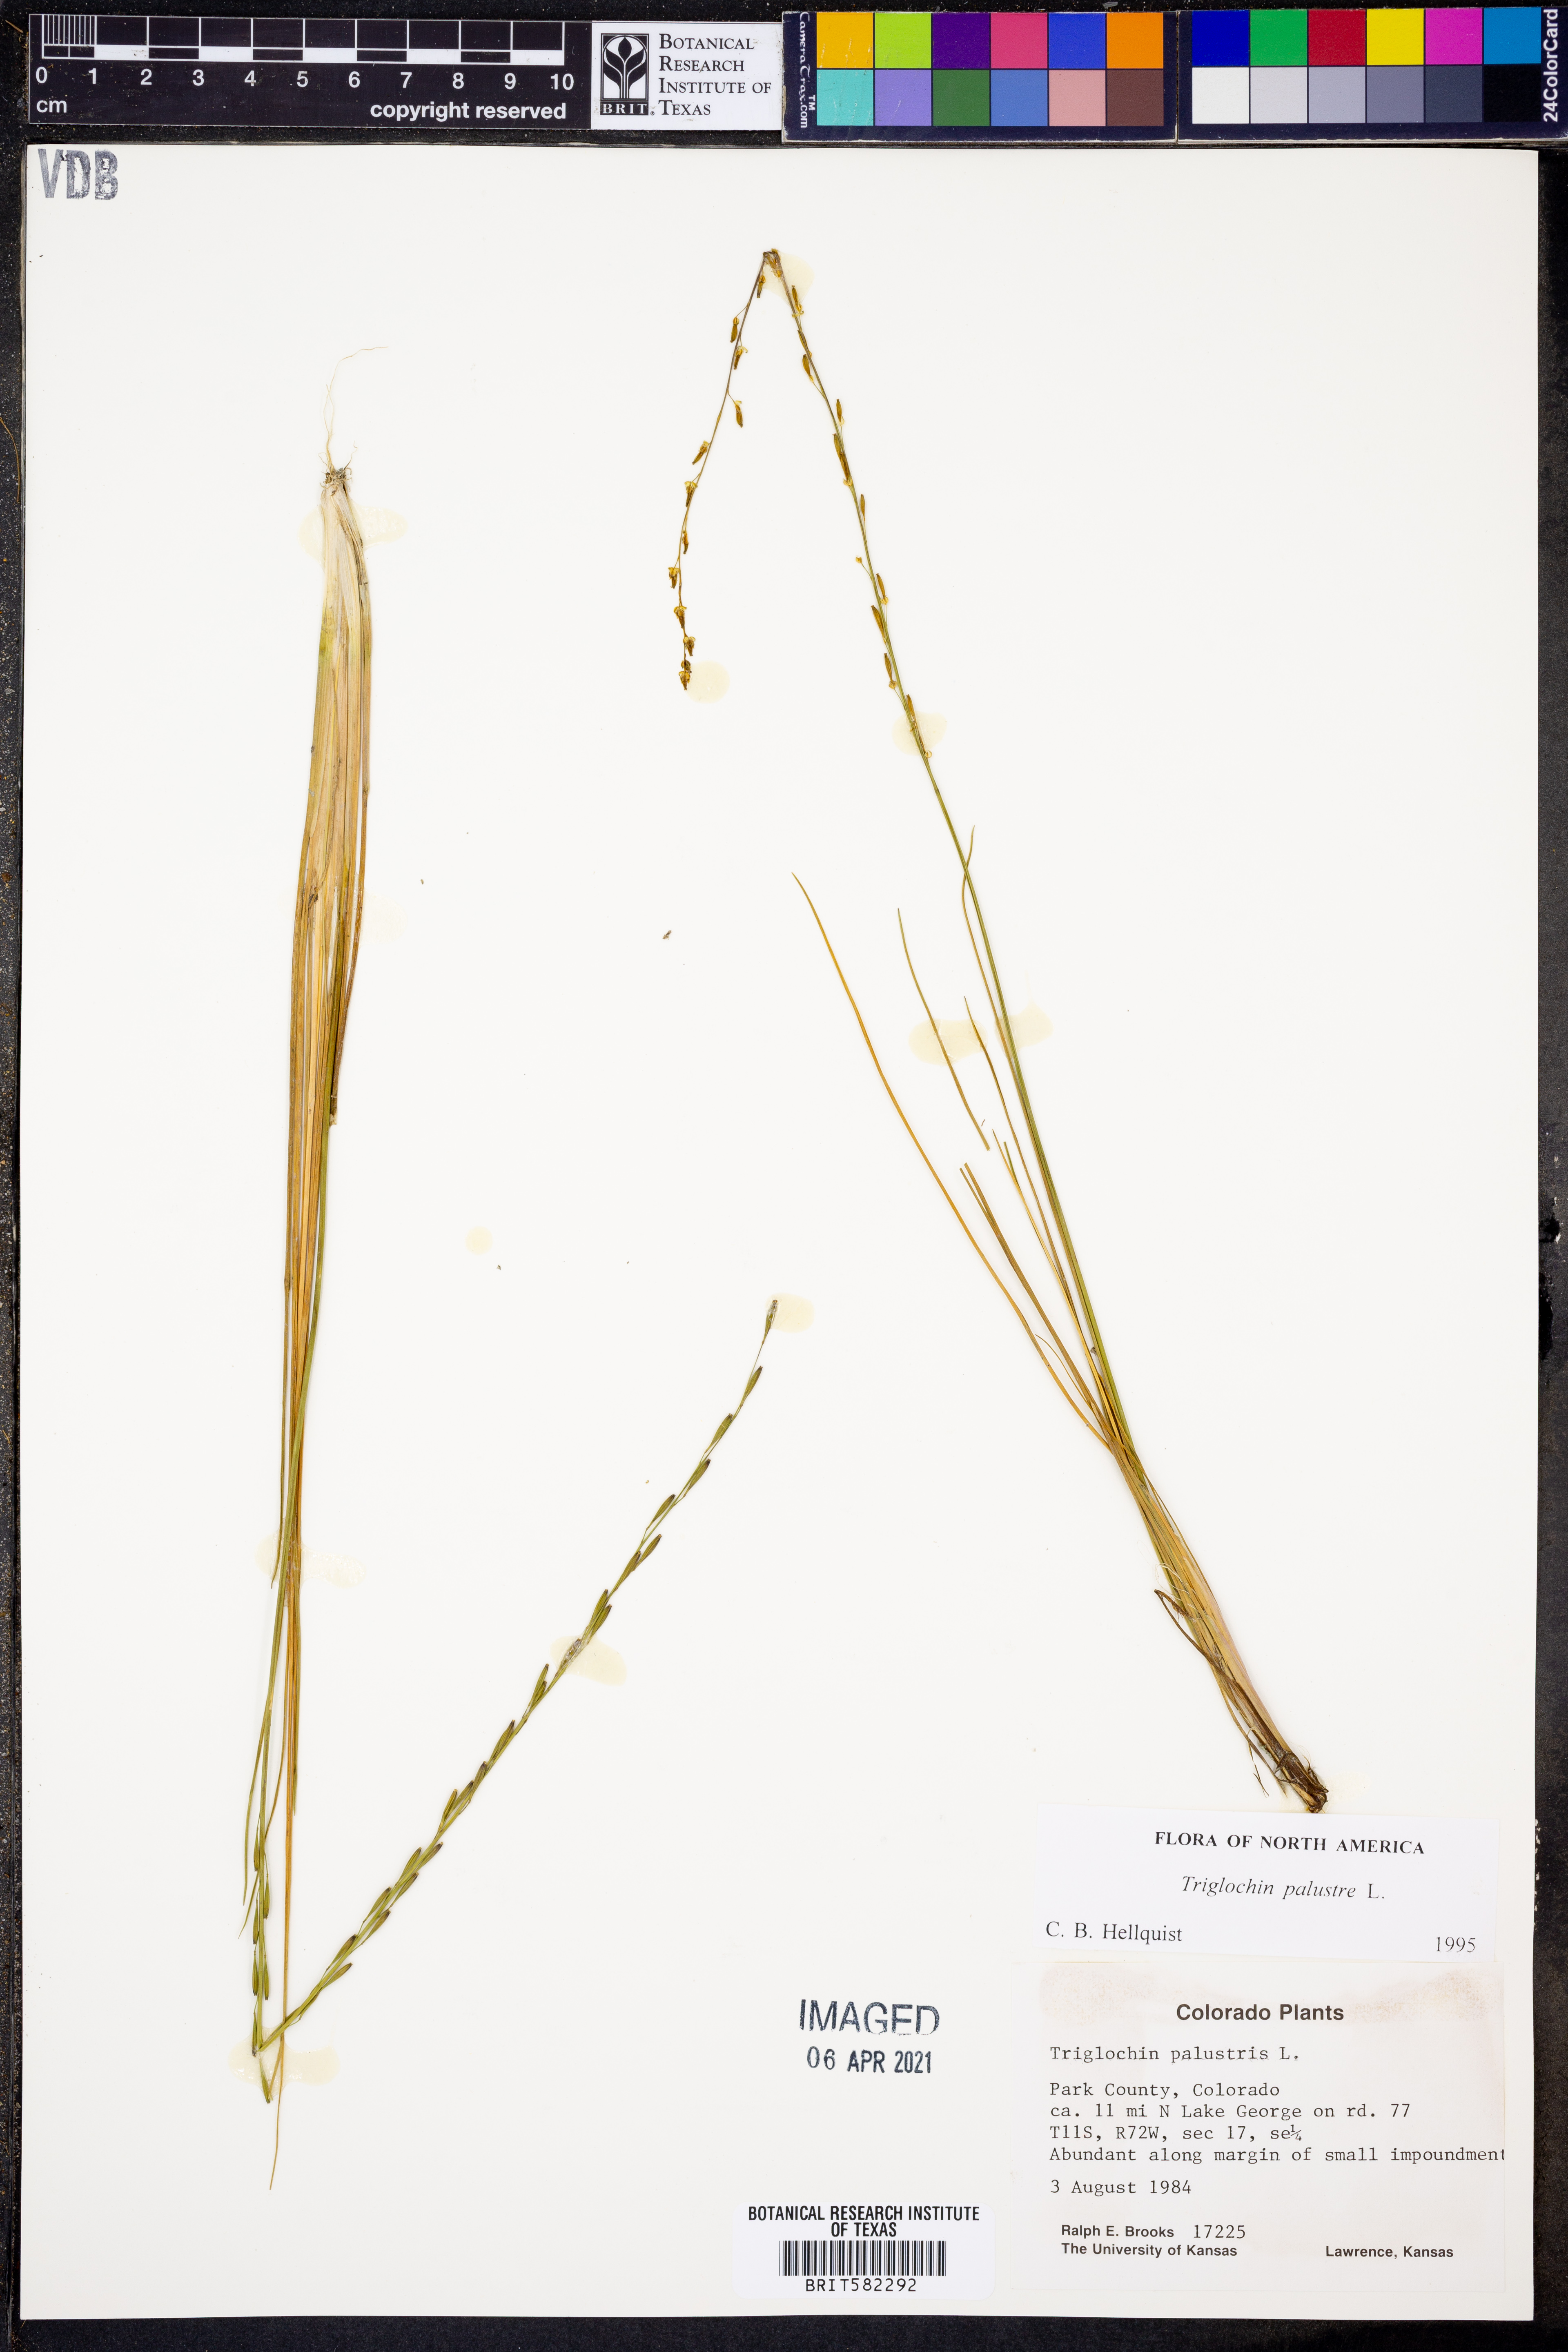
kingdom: Plantae
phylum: Tracheophyta
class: Liliopsida
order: Alismatales
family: Juncaginaceae
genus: Triglochin
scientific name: Triglochin palustris
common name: Marsh arrowgrass
